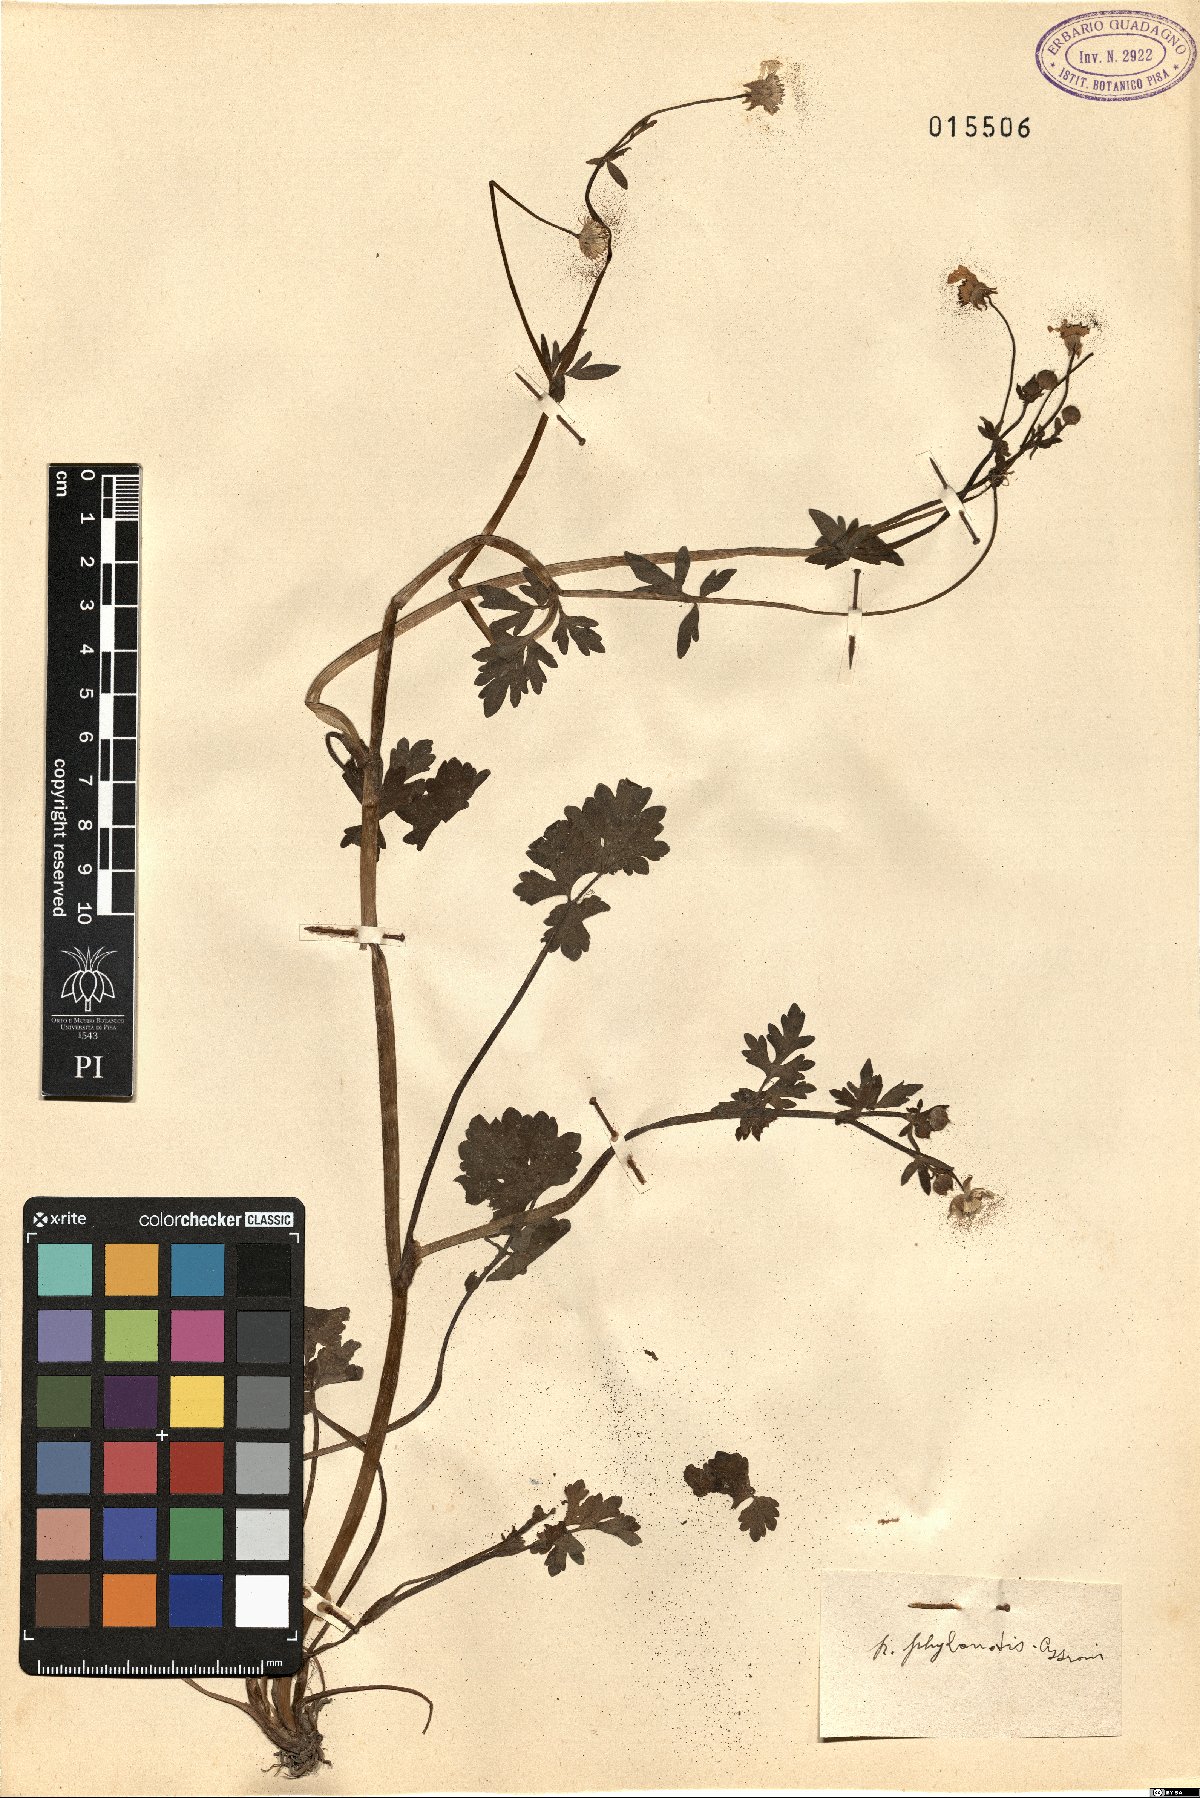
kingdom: Plantae
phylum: Tracheophyta
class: Magnoliopsida
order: Ranunculales
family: Ranunculaceae
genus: Ranunculus
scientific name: Ranunculus sardous
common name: Hairy buttercup
